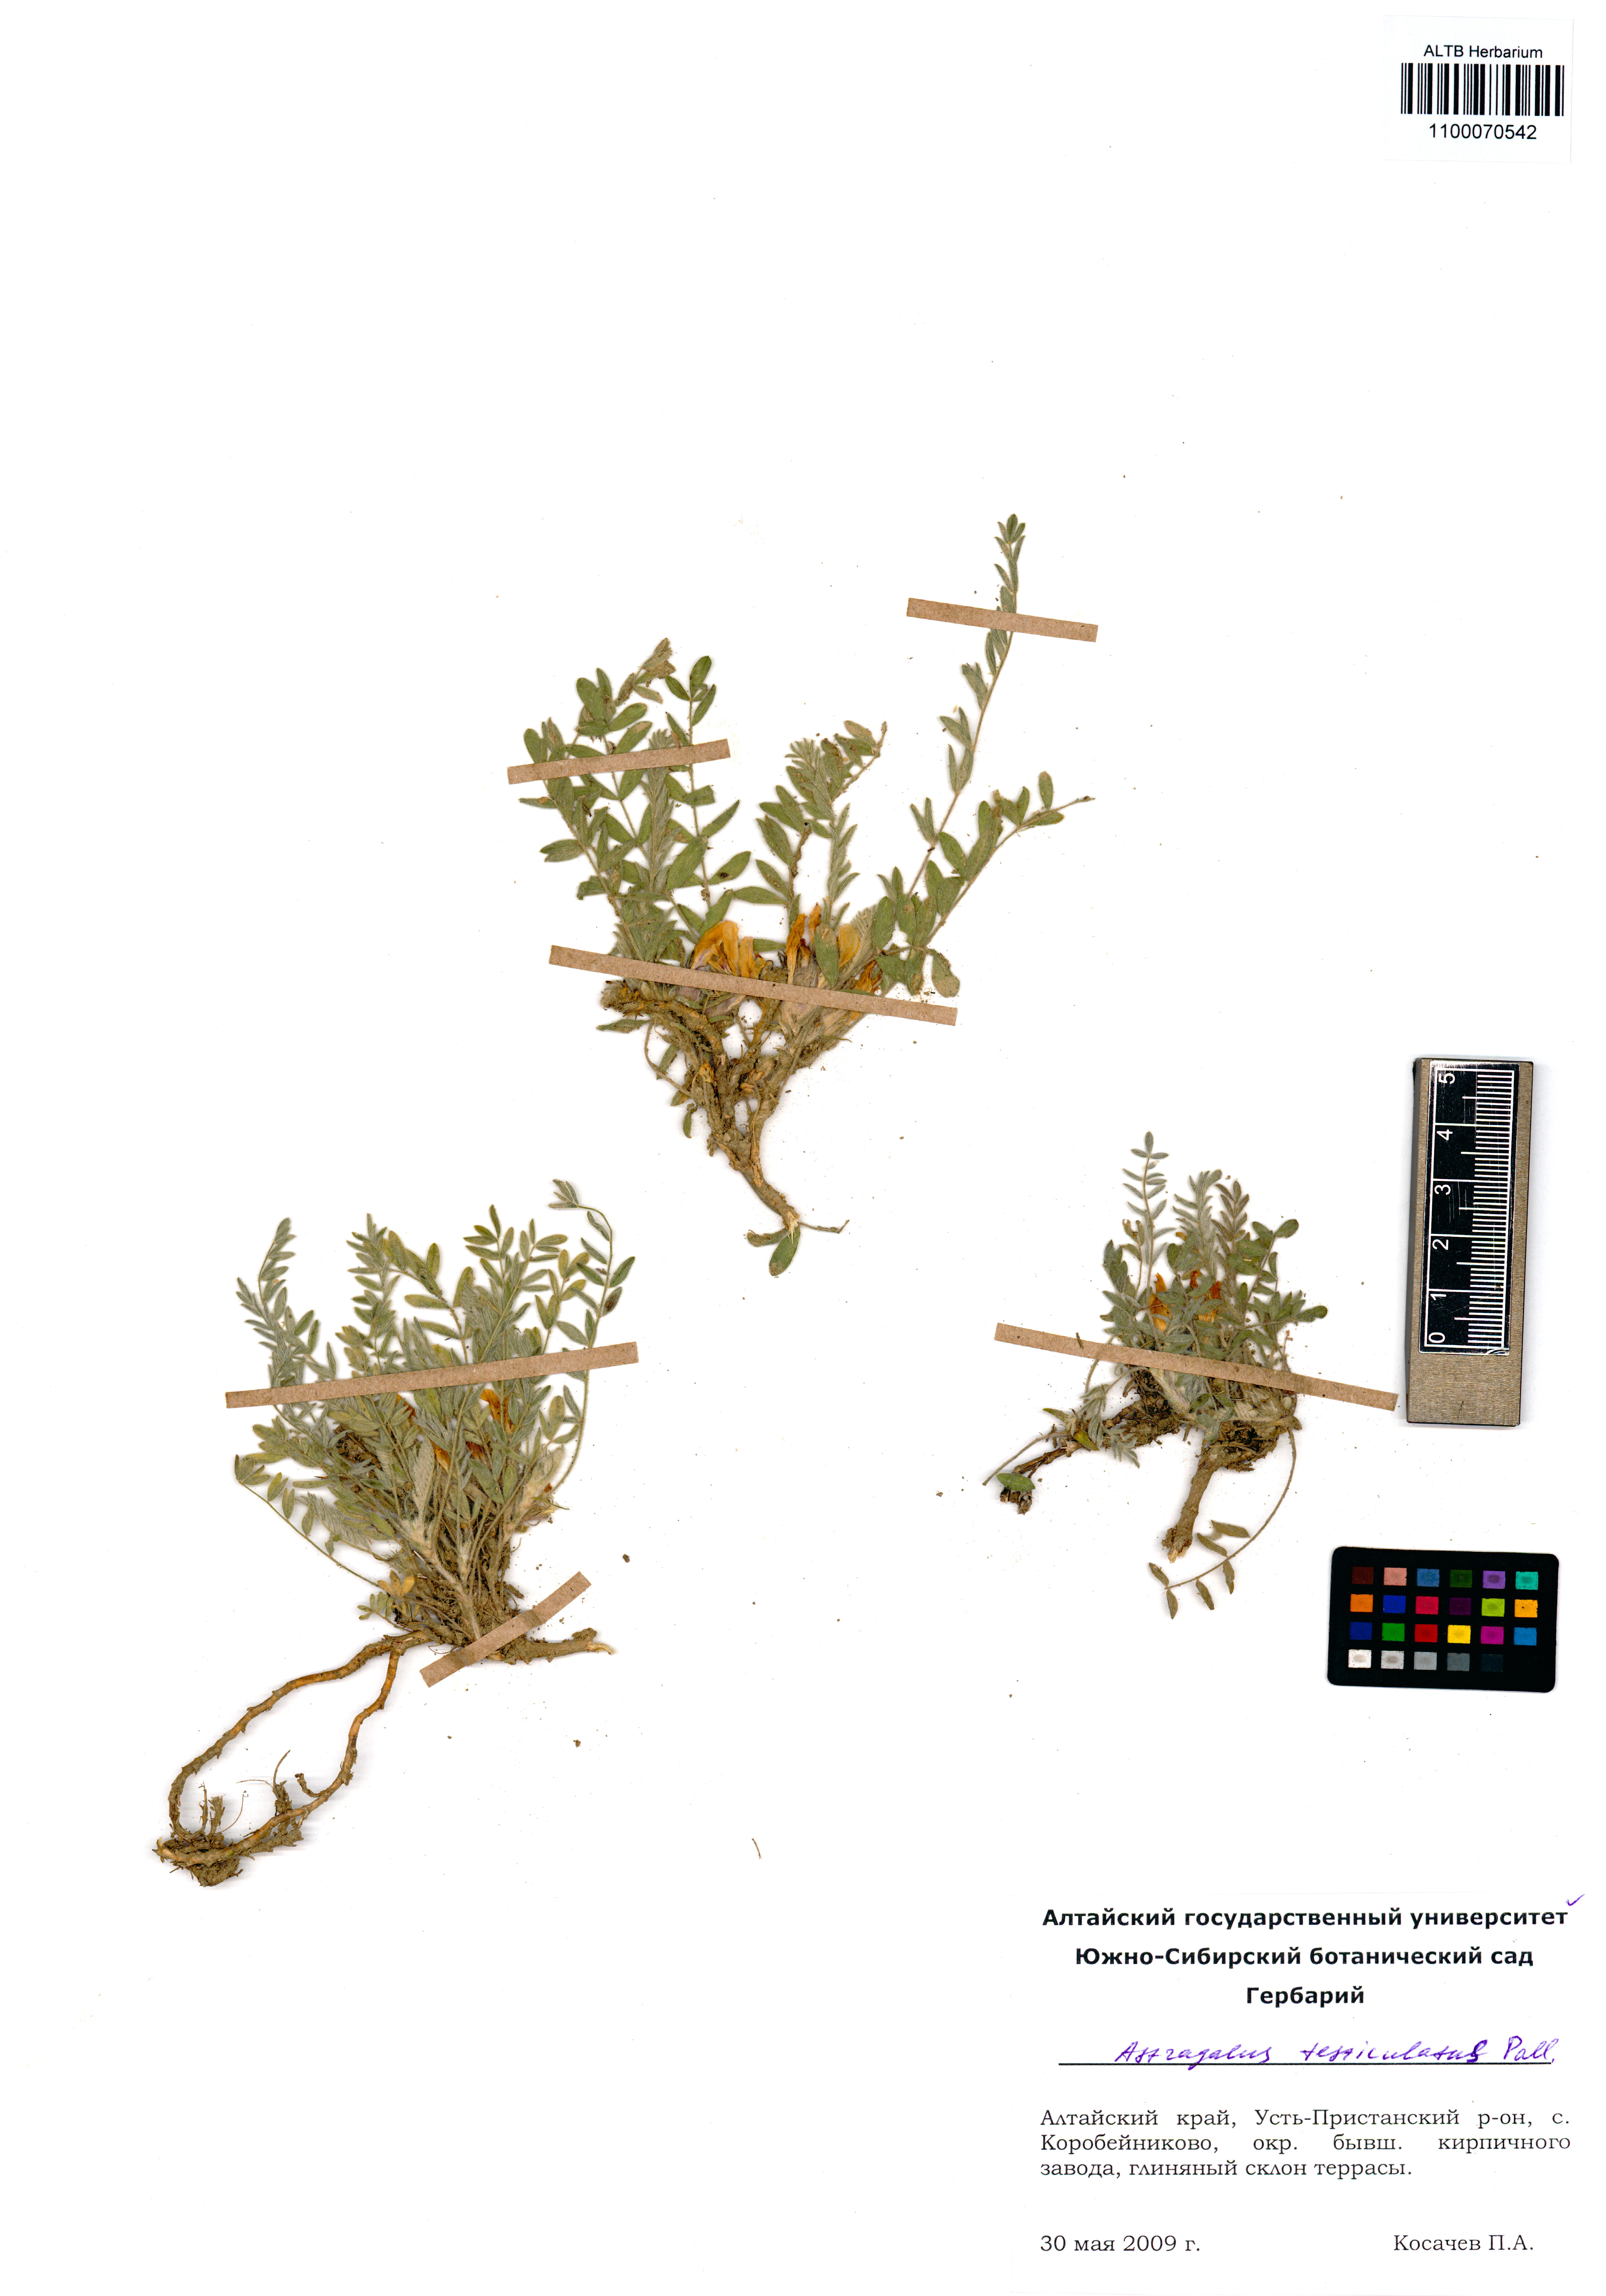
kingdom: Plantae
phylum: Tracheophyta
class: Magnoliopsida
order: Fabales
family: Fabaceae
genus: Astragalus
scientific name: Astragalus testiculatus
